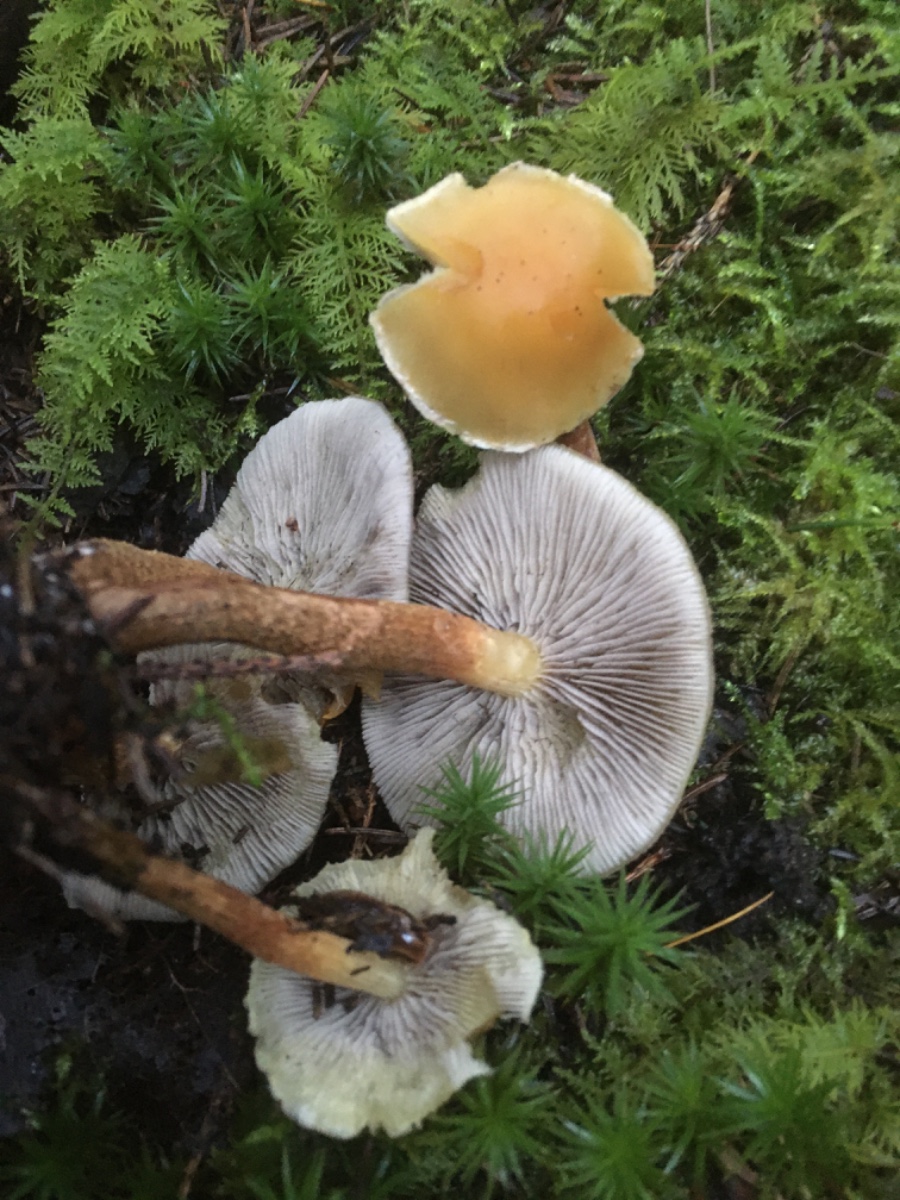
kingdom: Fungi
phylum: Basidiomycota
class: Agaricomycetes
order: Agaricales
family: Strophariaceae
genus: Hypholoma
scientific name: Hypholoma capnoides
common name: gran-svovlhat
